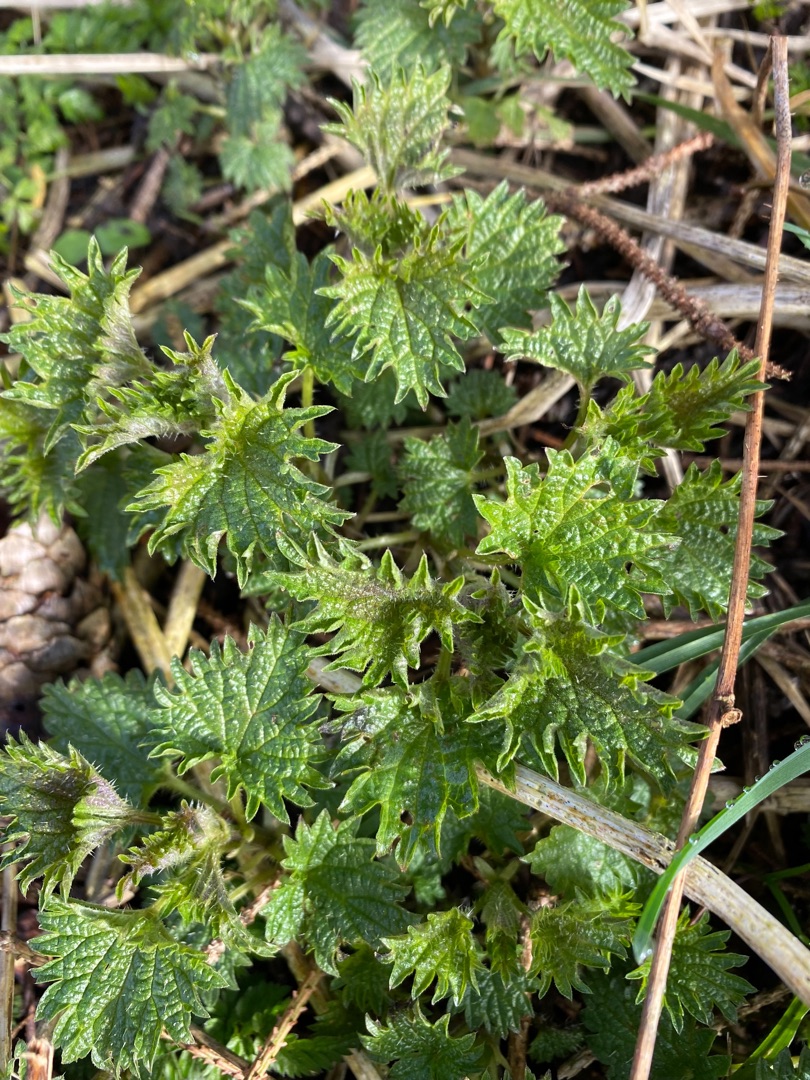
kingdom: Plantae
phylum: Tracheophyta
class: Magnoliopsida
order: Rosales
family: Urticaceae
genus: Urtica
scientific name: Urtica dioica
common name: Stor nælde
